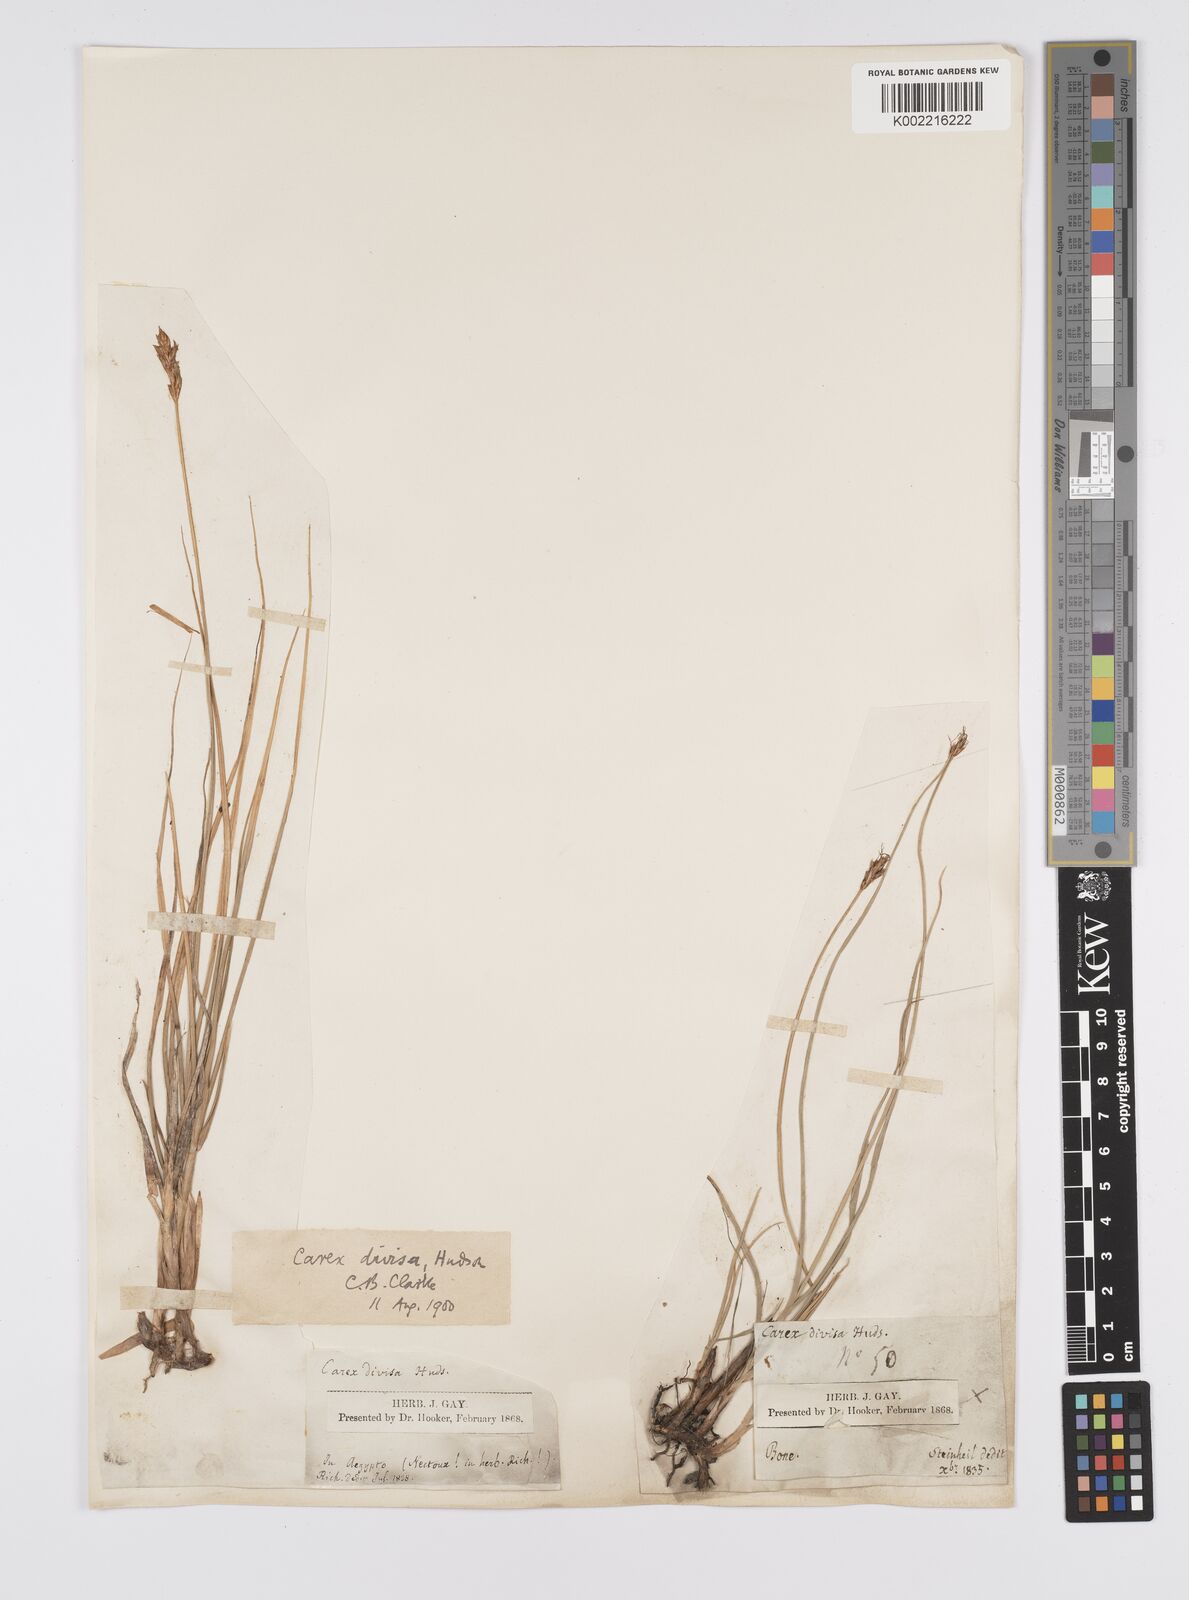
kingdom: Plantae
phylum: Tracheophyta
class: Liliopsida
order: Poales
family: Cyperaceae
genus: Carex
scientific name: Carex divisa
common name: Divided sedge
